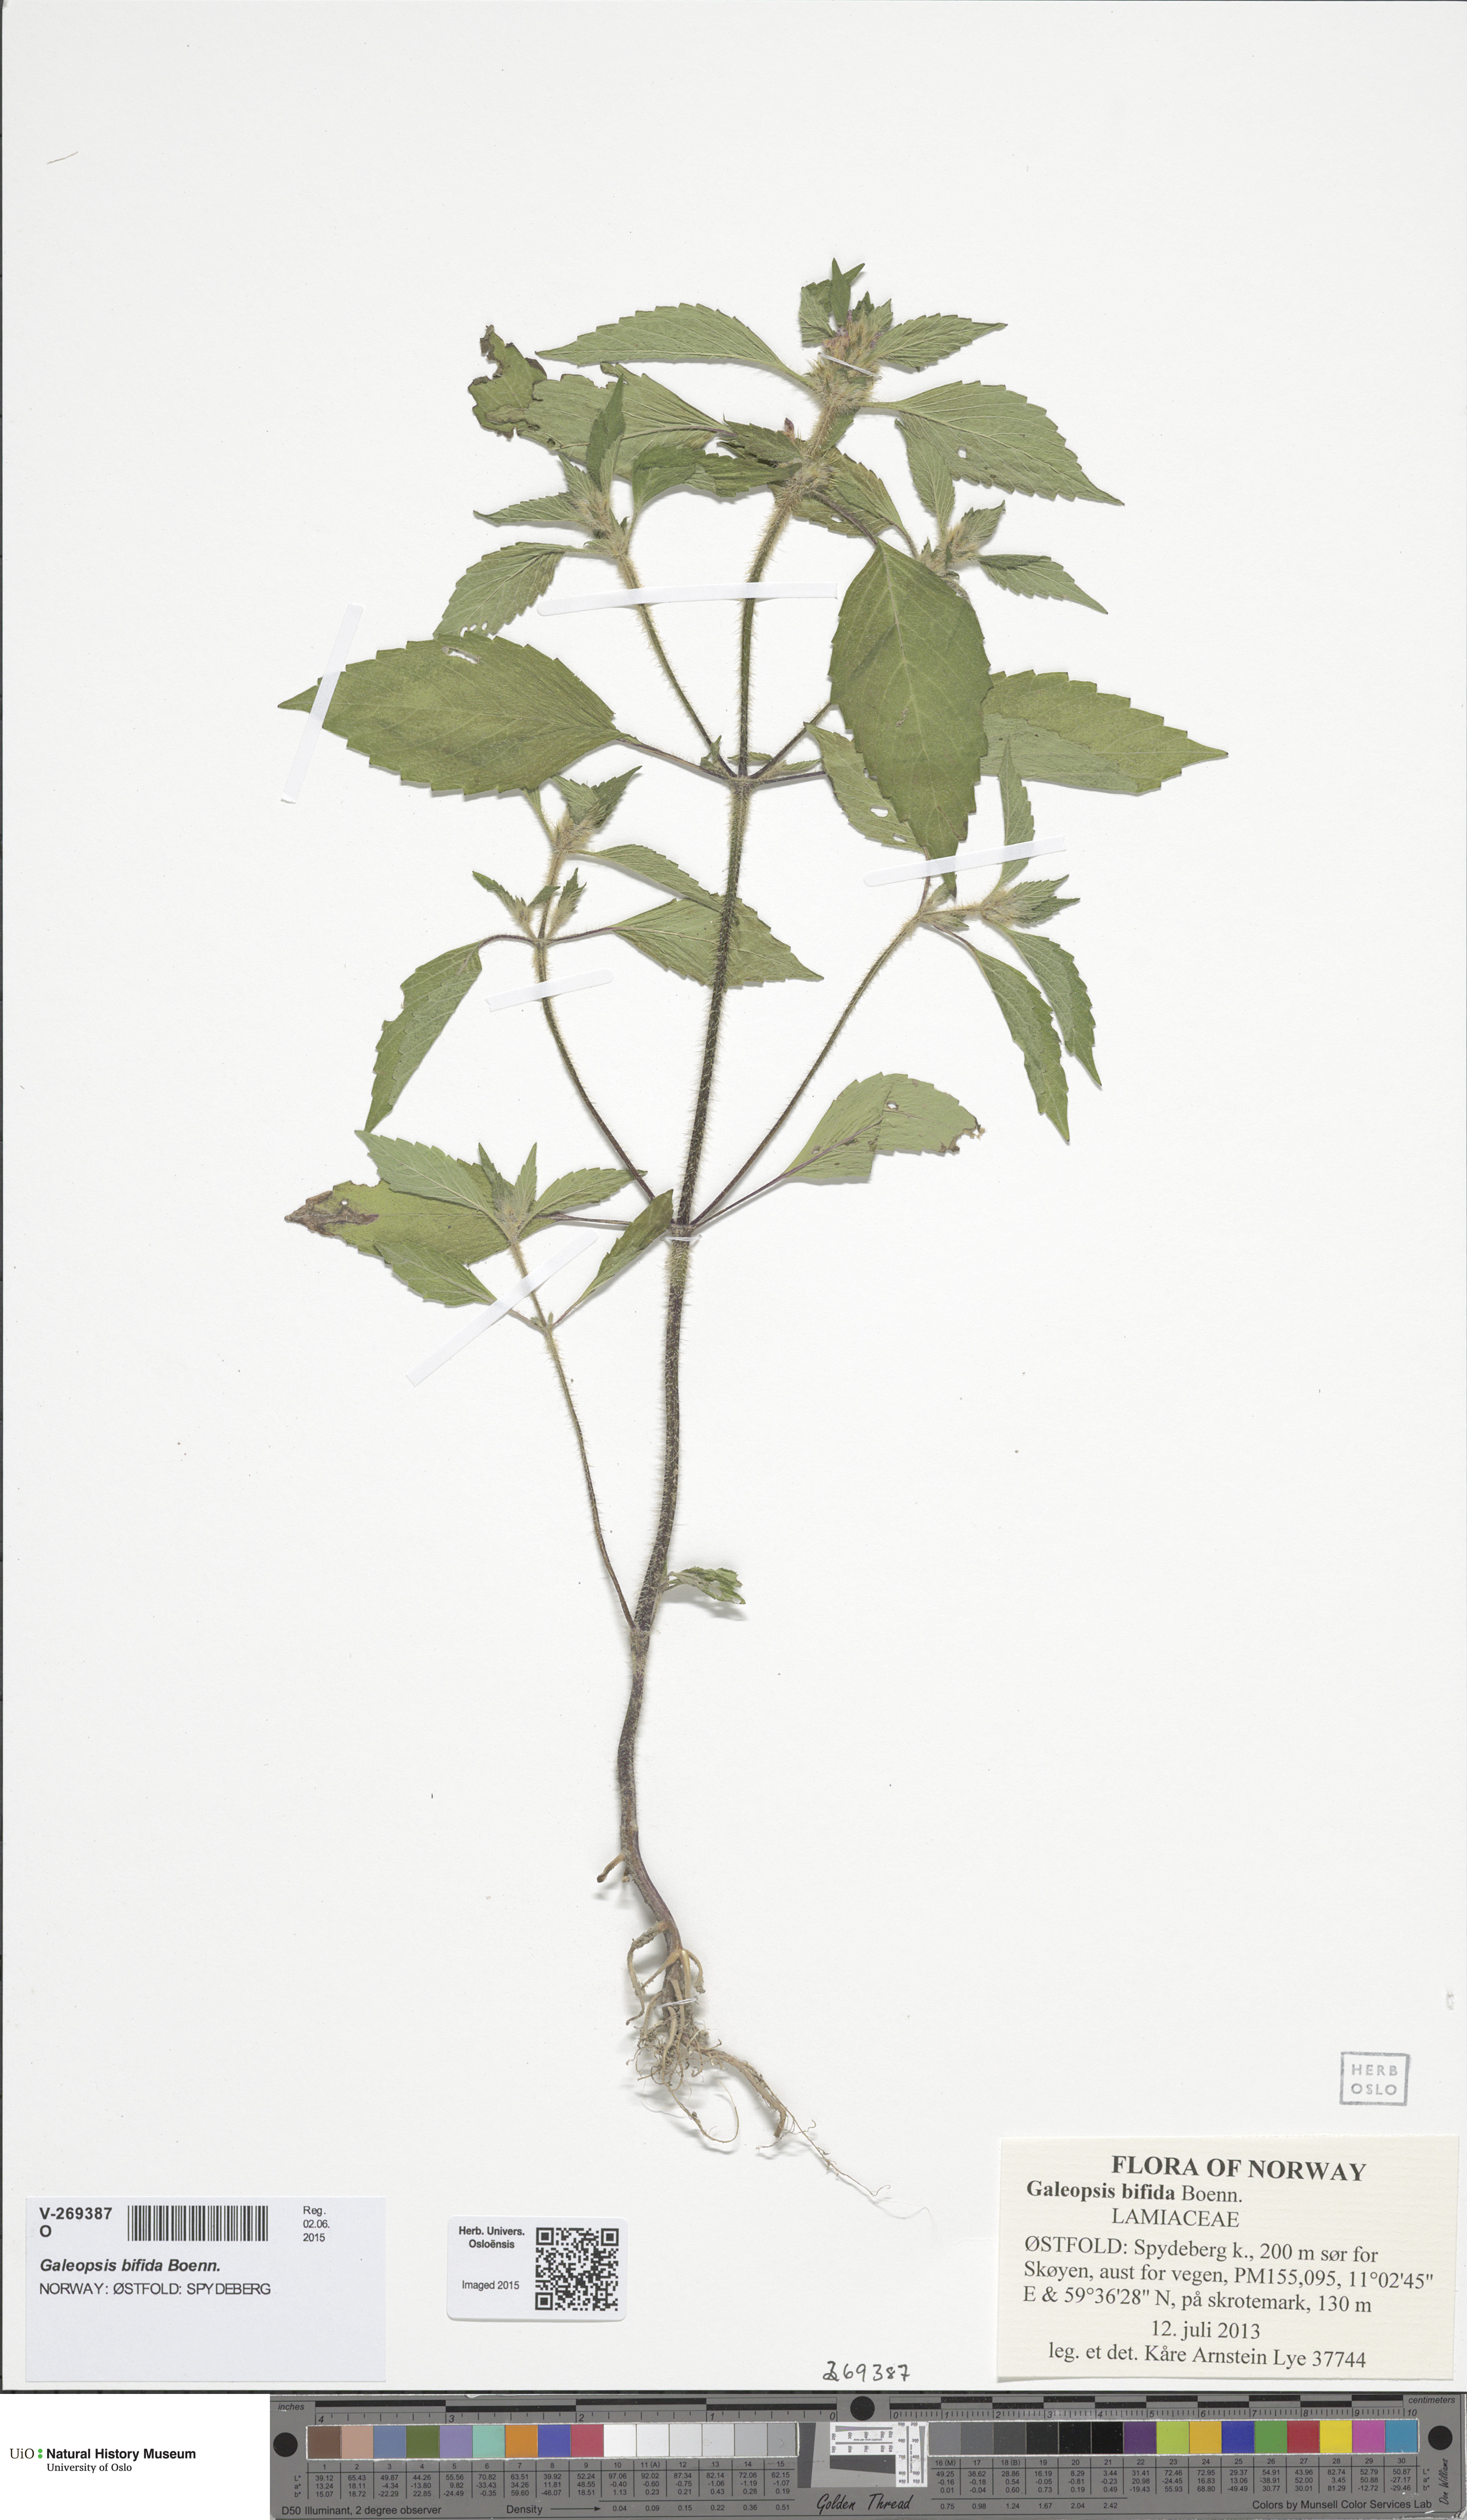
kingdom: Plantae
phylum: Tracheophyta
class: Magnoliopsida
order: Lamiales
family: Lamiaceae
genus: Galeopsis
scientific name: Galeopsis bifida
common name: Bifid hemp-nettle
